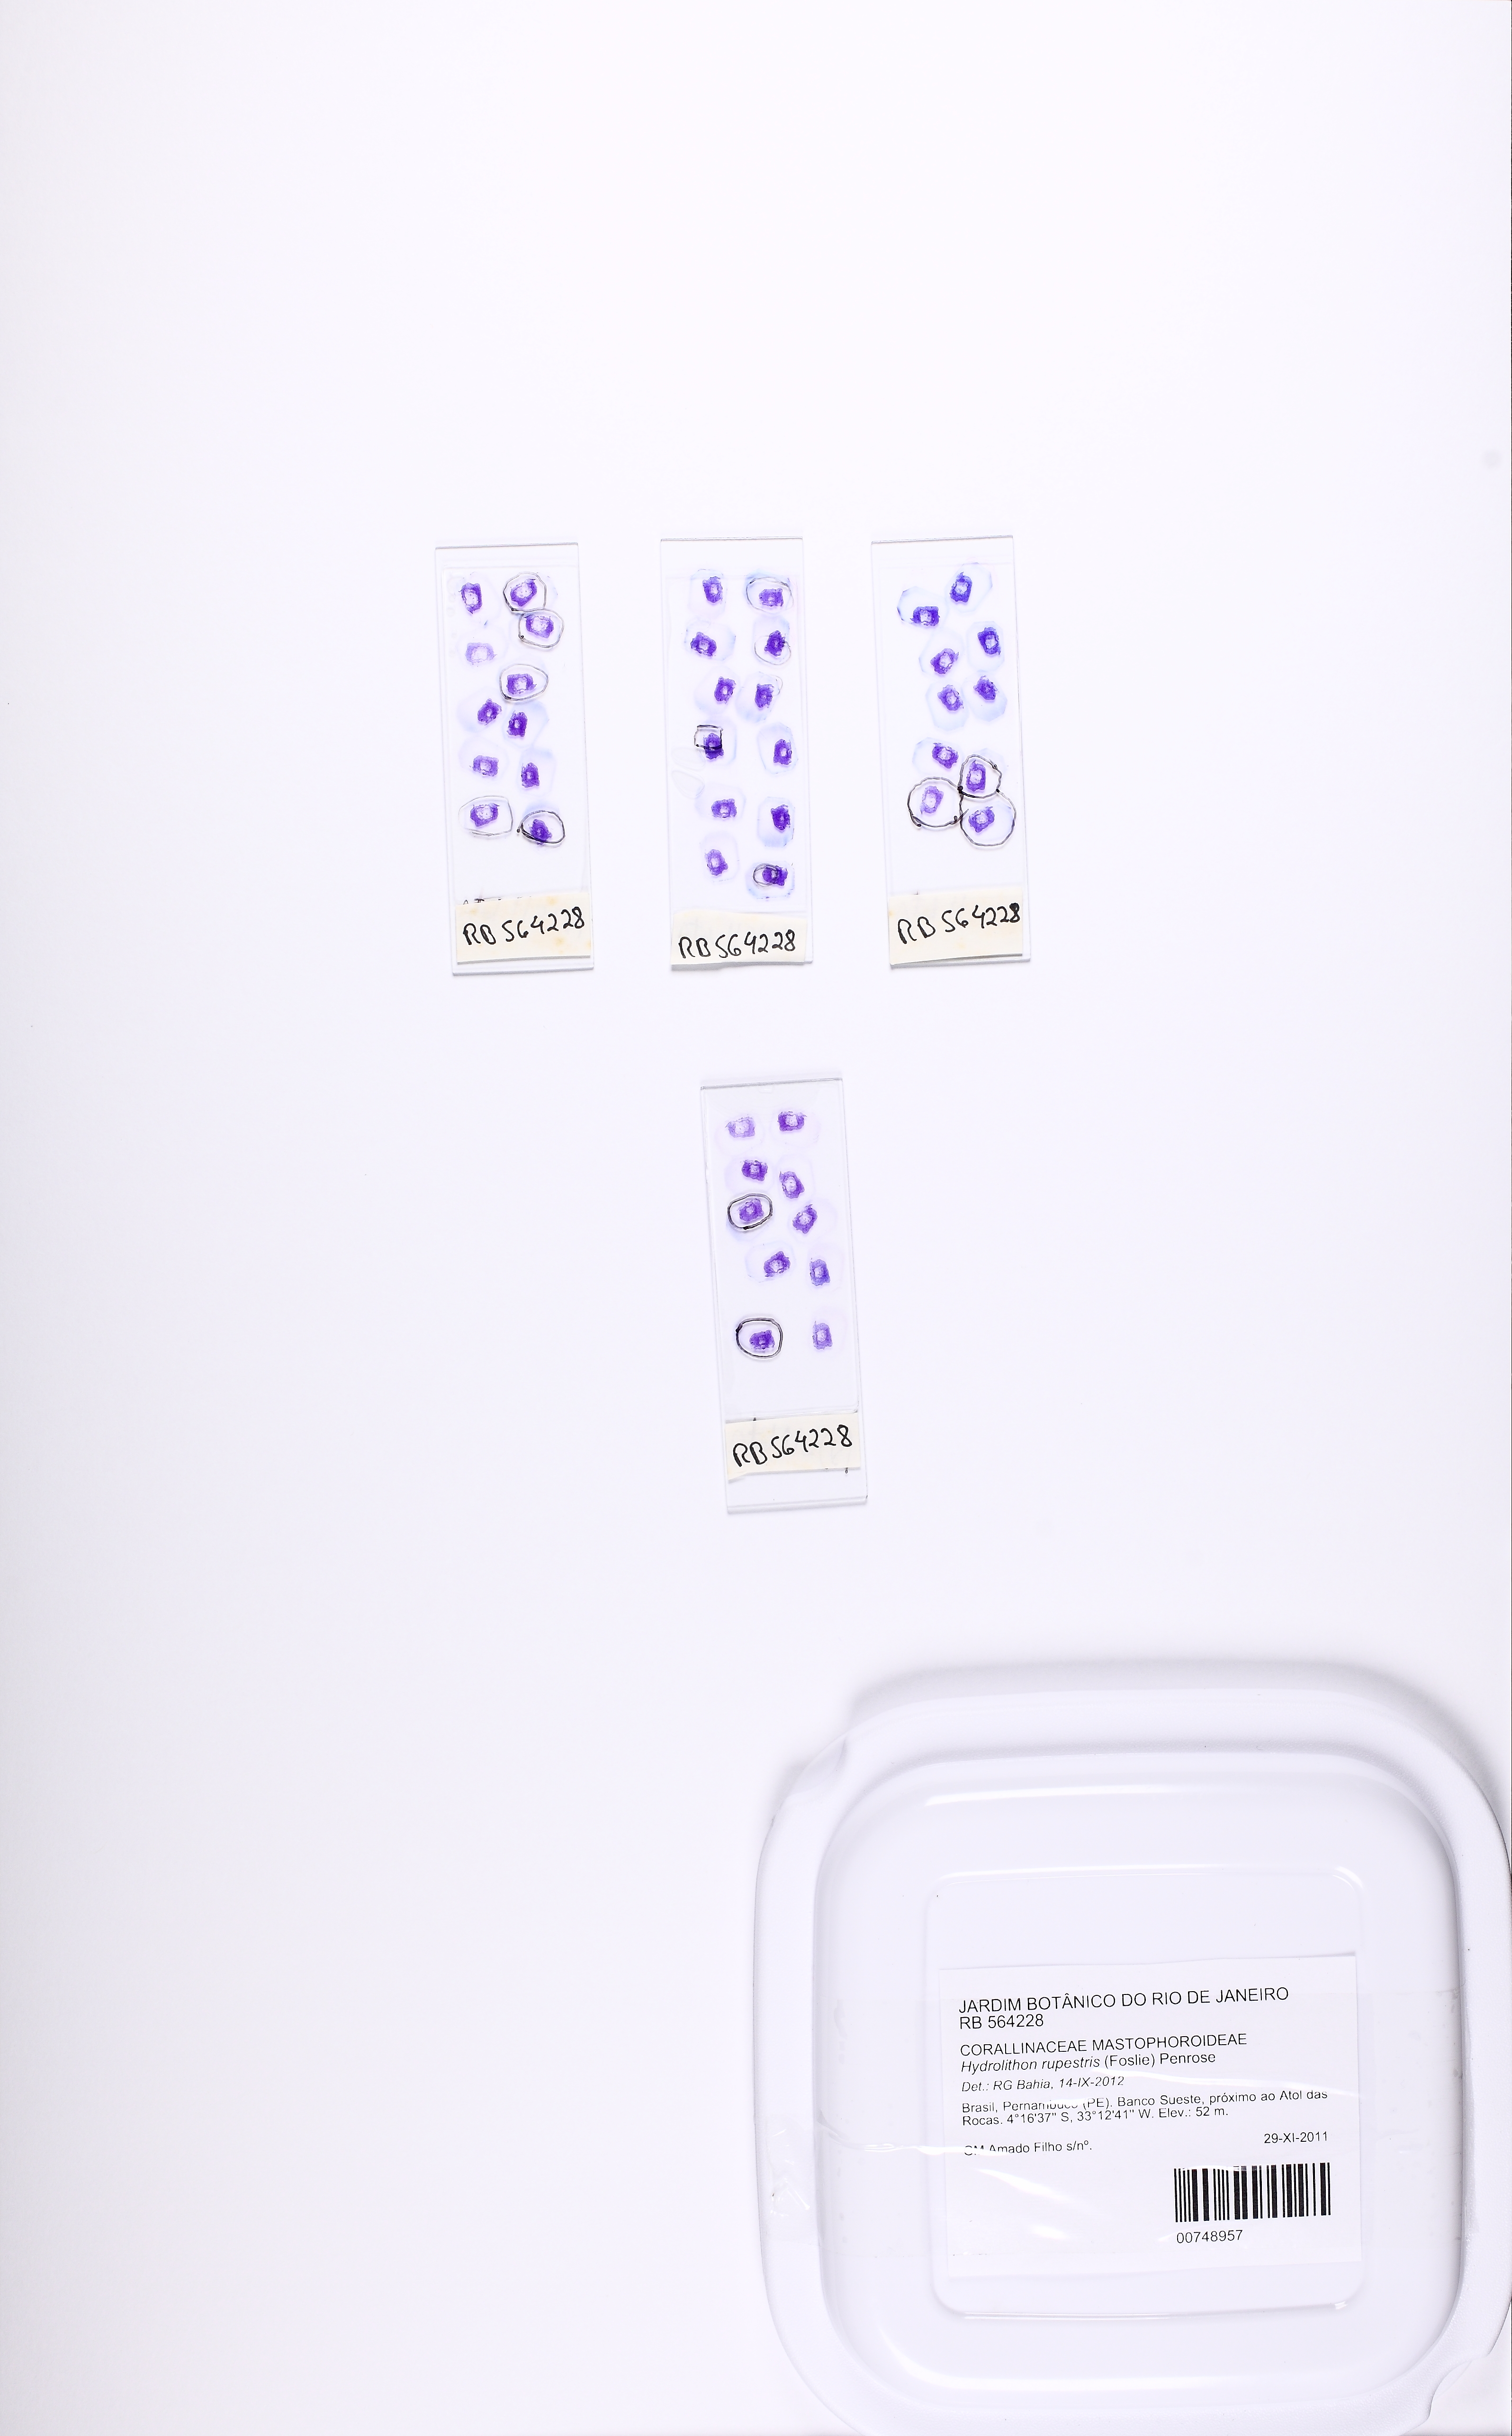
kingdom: Plantae
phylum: Rhodophyta
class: Florideophyceae
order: Corallinales
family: Porolithaceae
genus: Harveylithon
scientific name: Harveylithon rupestre
